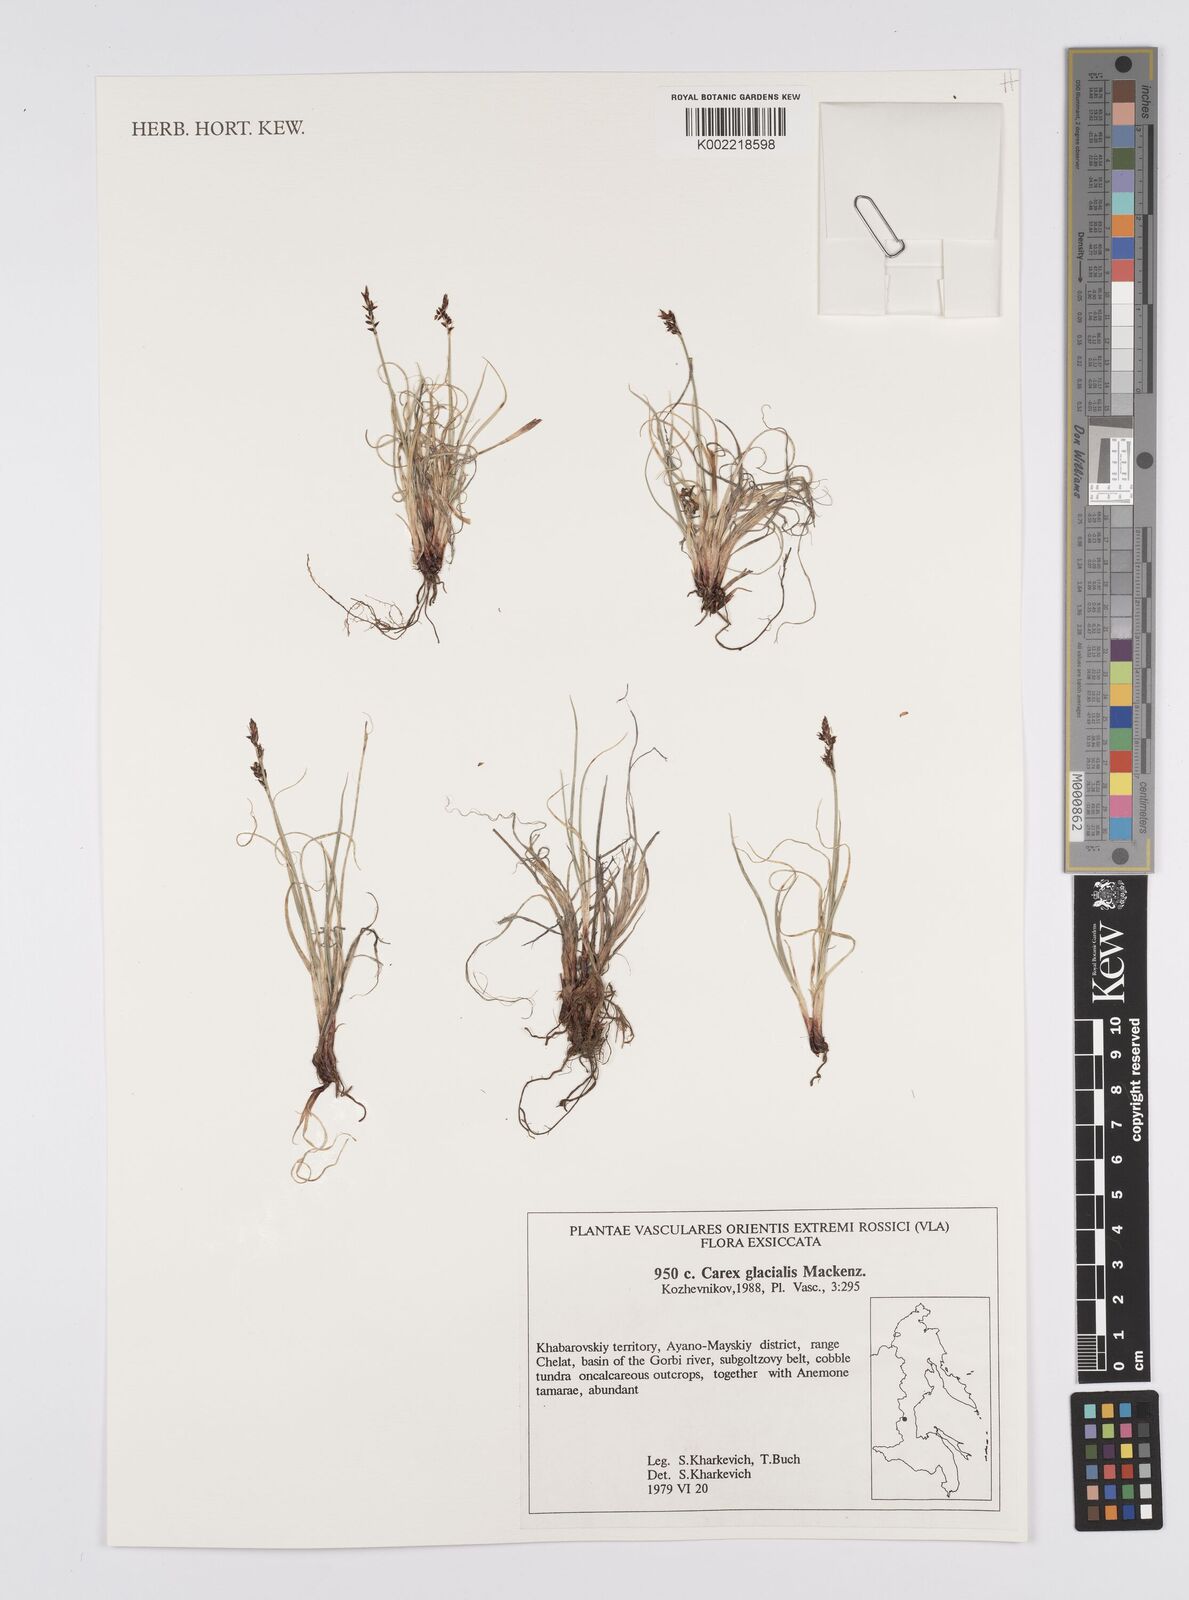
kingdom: Plantae
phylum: Tracheophyta
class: Liliopsida
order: Poales
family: Cyperaceae
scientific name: Cyperaceae
